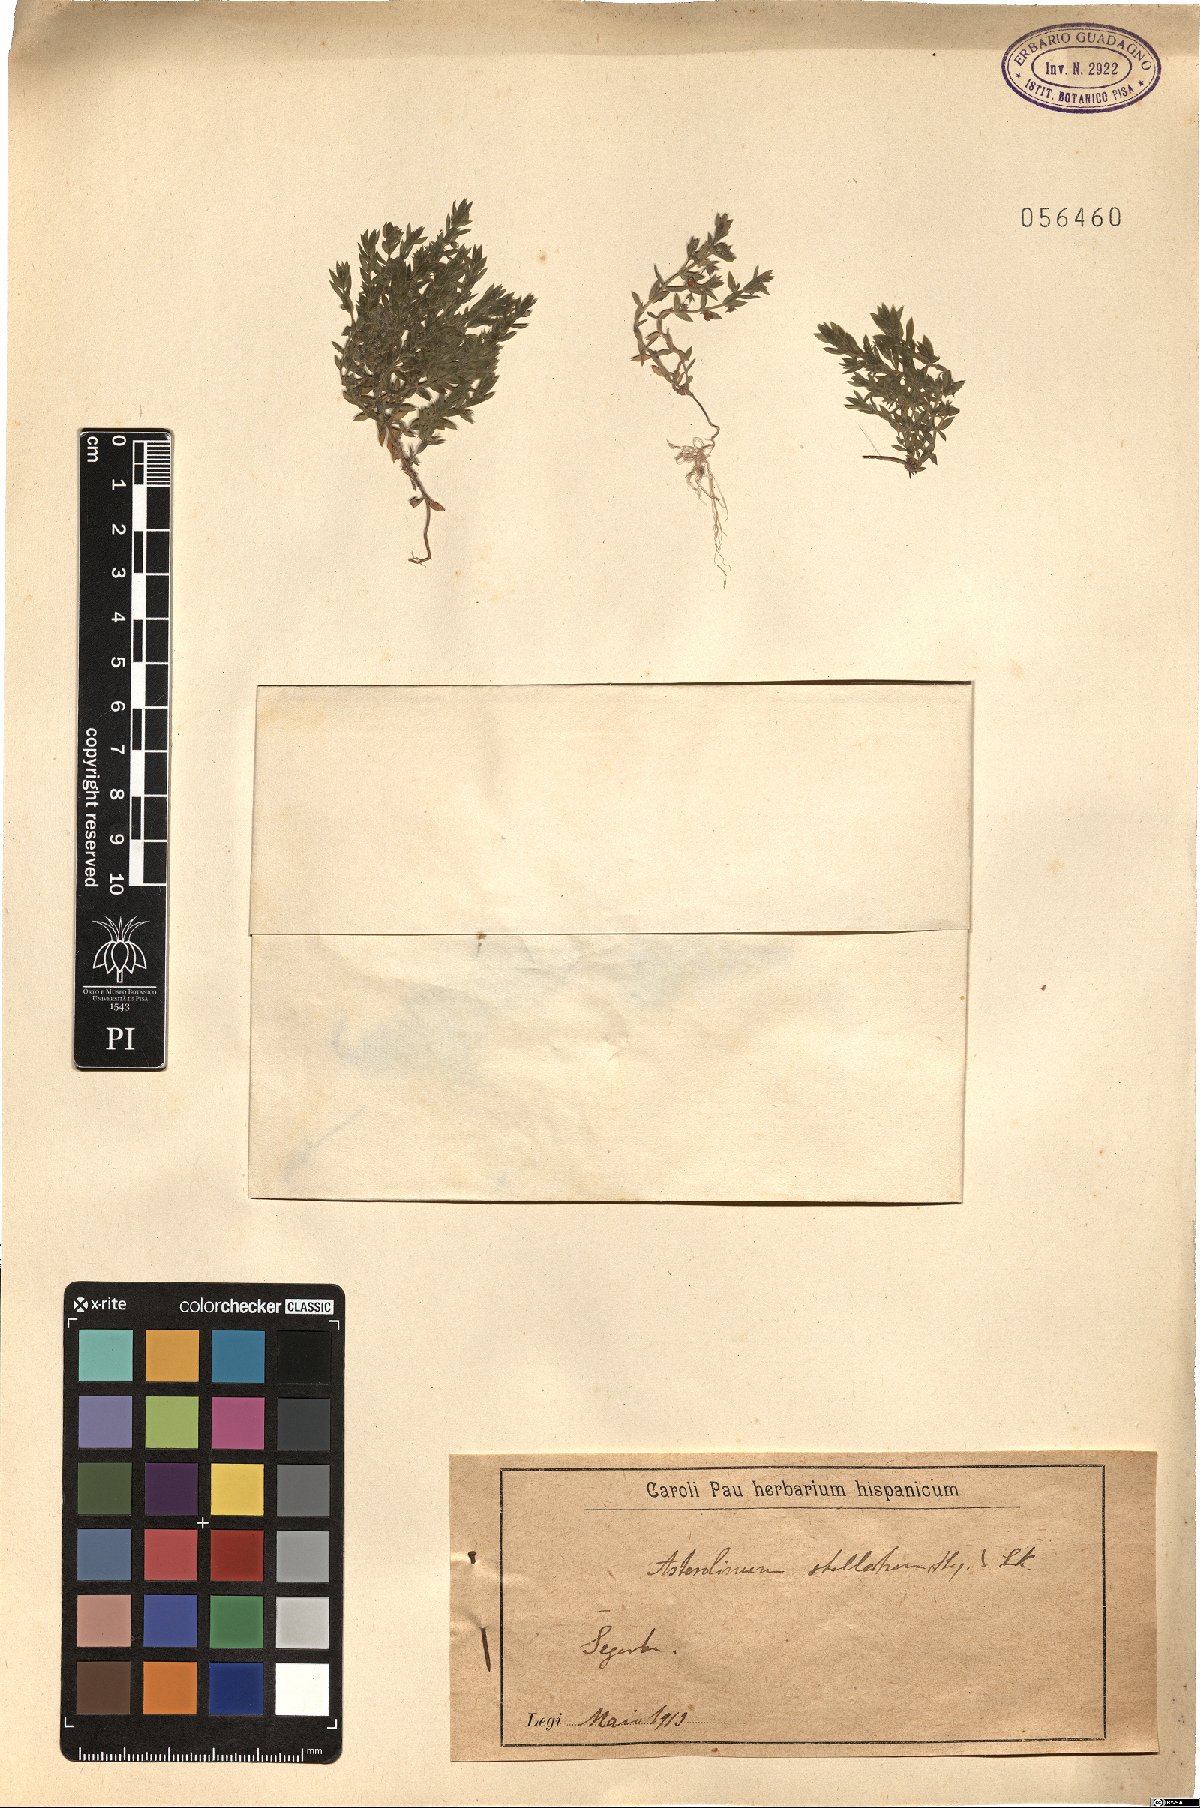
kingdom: Plantae
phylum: Tracheophyta
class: Magnoliopsida
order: Ericales
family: Primulaceae
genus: Lysimachia
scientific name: Lysimachia linum-stellatum
